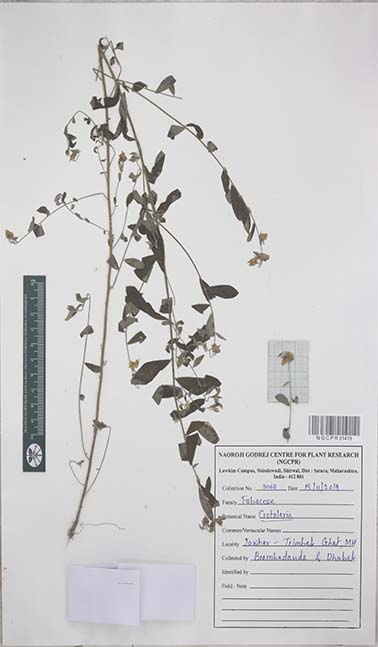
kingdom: Plantae
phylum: Tracheophyta
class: Magnoliopsida
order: Fabales
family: Fabaceae
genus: Crotalaria
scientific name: Crotalaria
